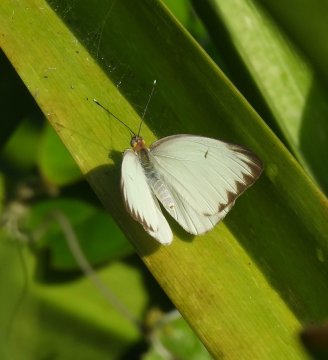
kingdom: Animalia
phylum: Arthropoda
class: Insecta
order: Lepidoptera
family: Pieridae
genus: Ascia
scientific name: Ascia monuste
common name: Great Southern White
